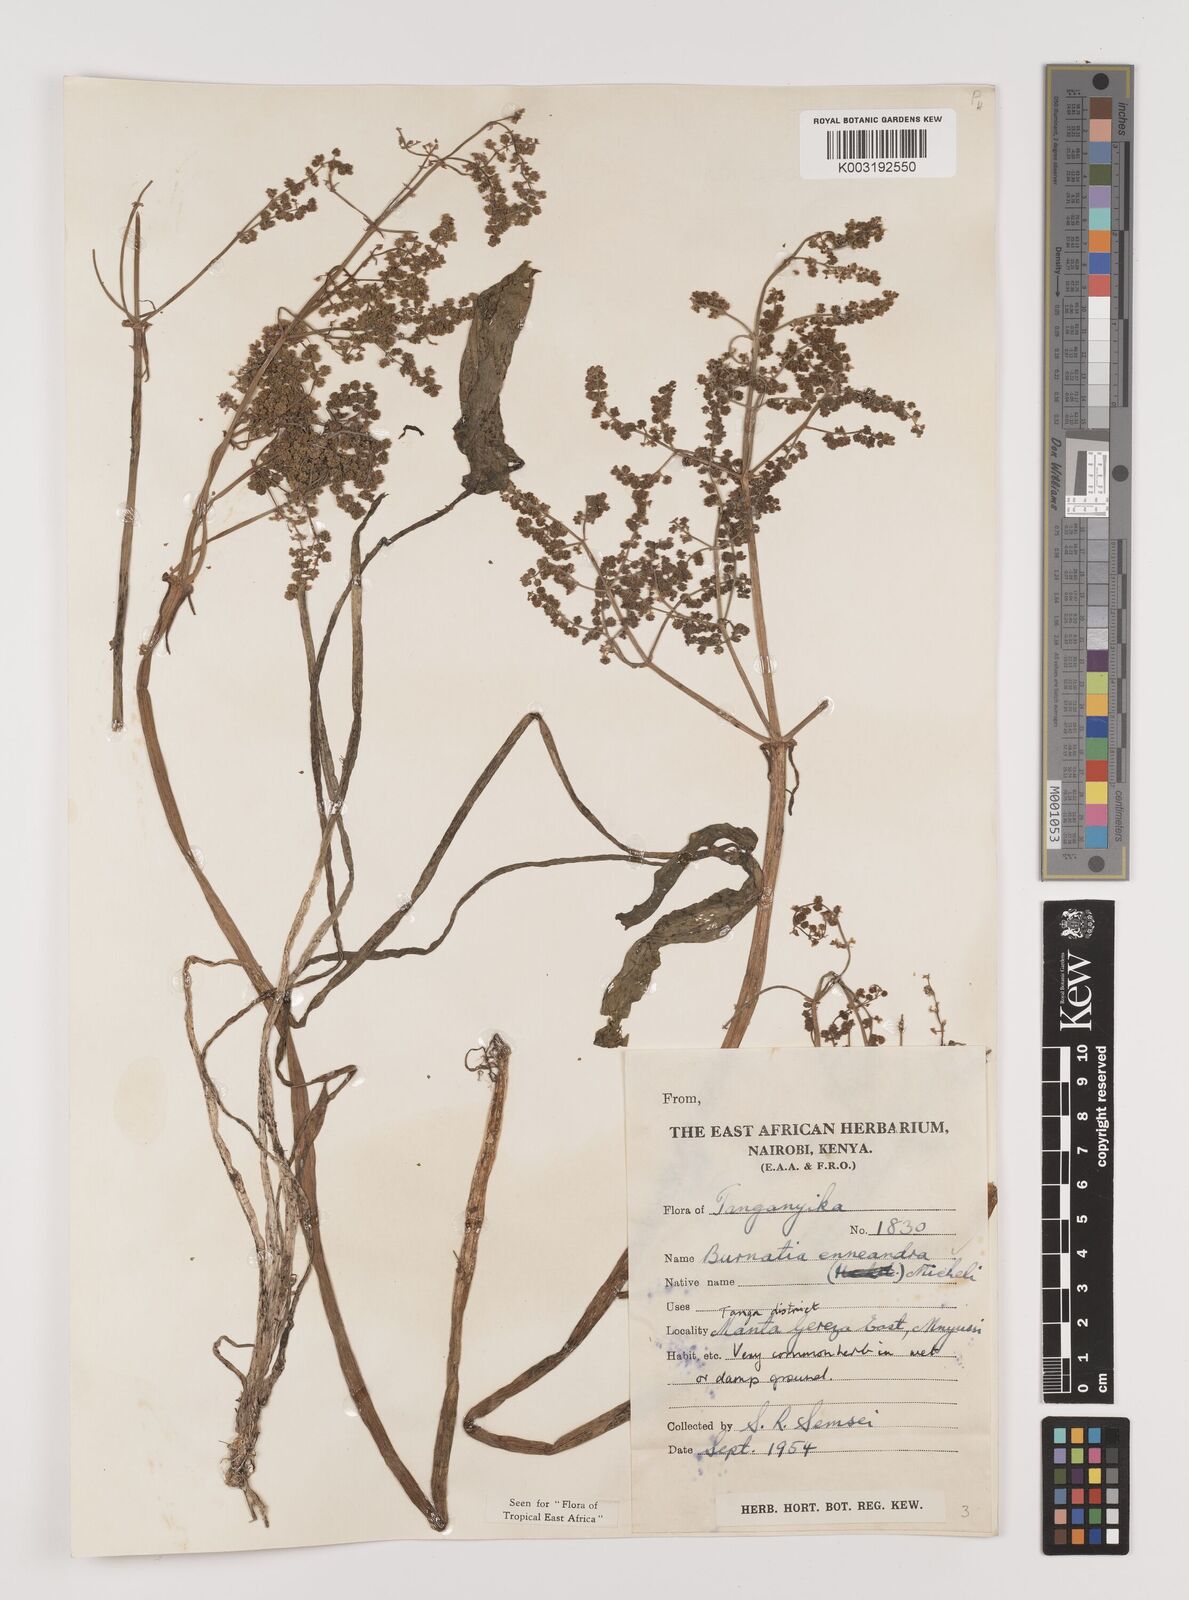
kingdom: Plantae
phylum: Tracheophyta
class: Liliopsida
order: Alismatales
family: Alismataceae
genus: Burnatia
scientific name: Burnatia enneandra
